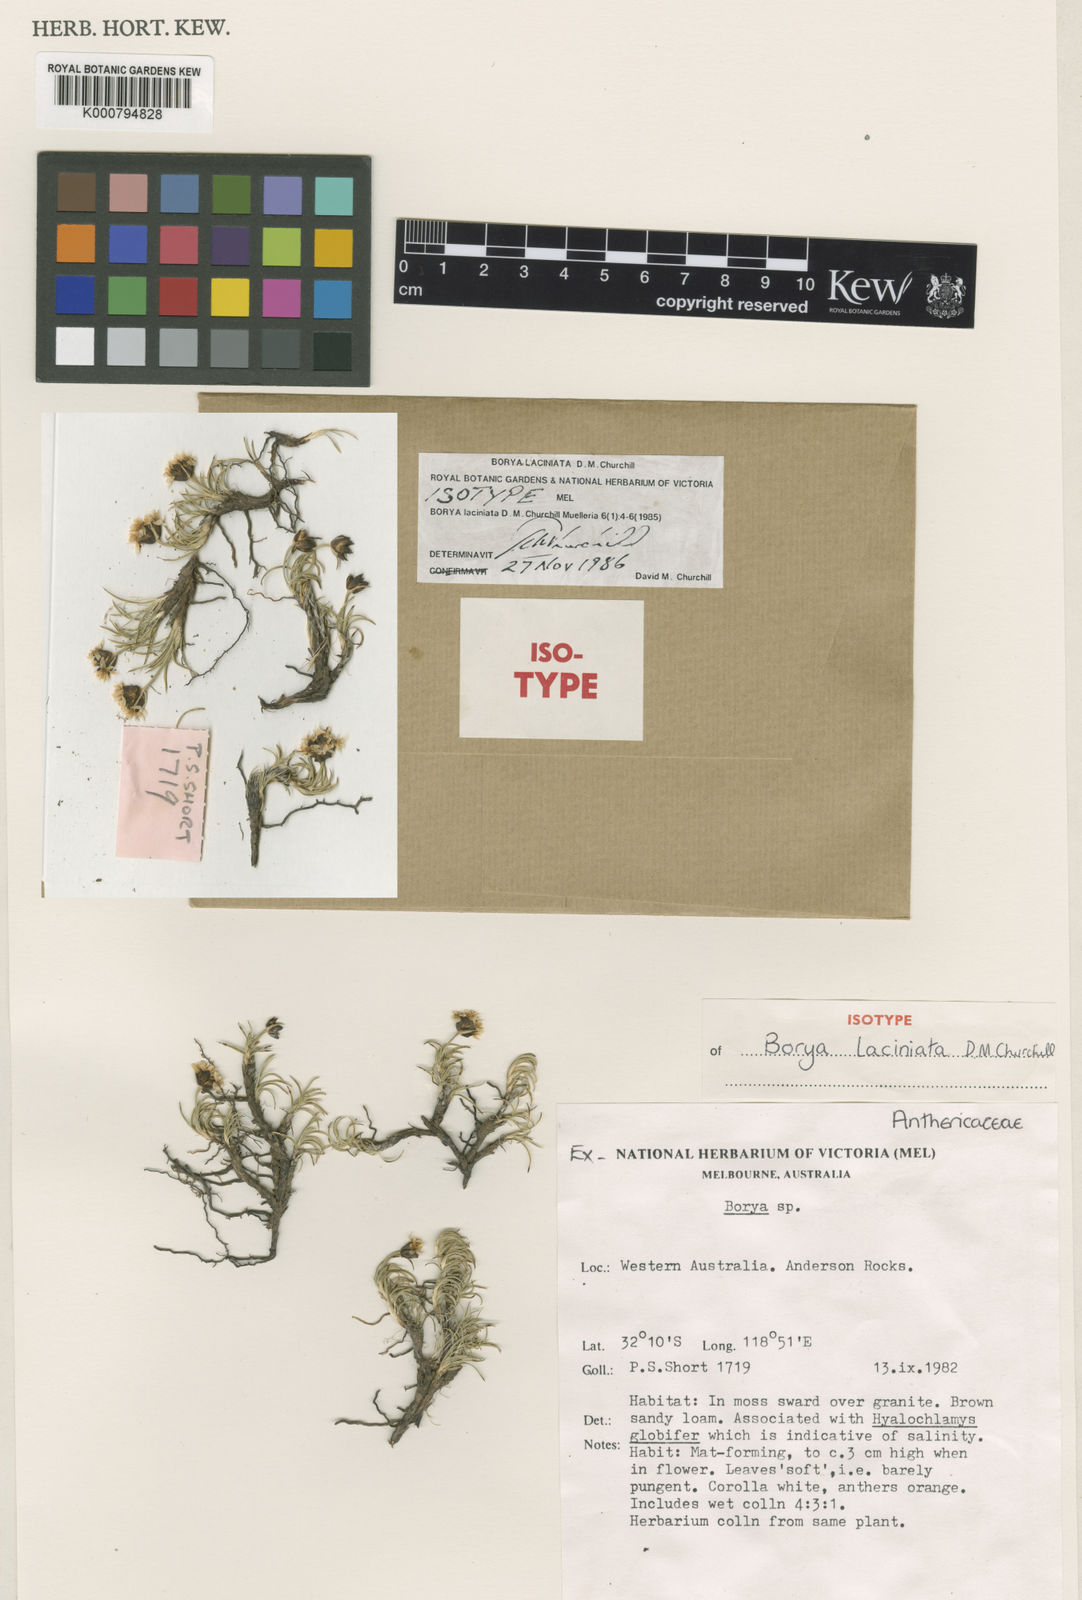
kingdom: Plantae
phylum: Tracheophyta
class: Liliopsida
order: Asparagales
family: Boryaceae
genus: Borya
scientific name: Borya laciniata
